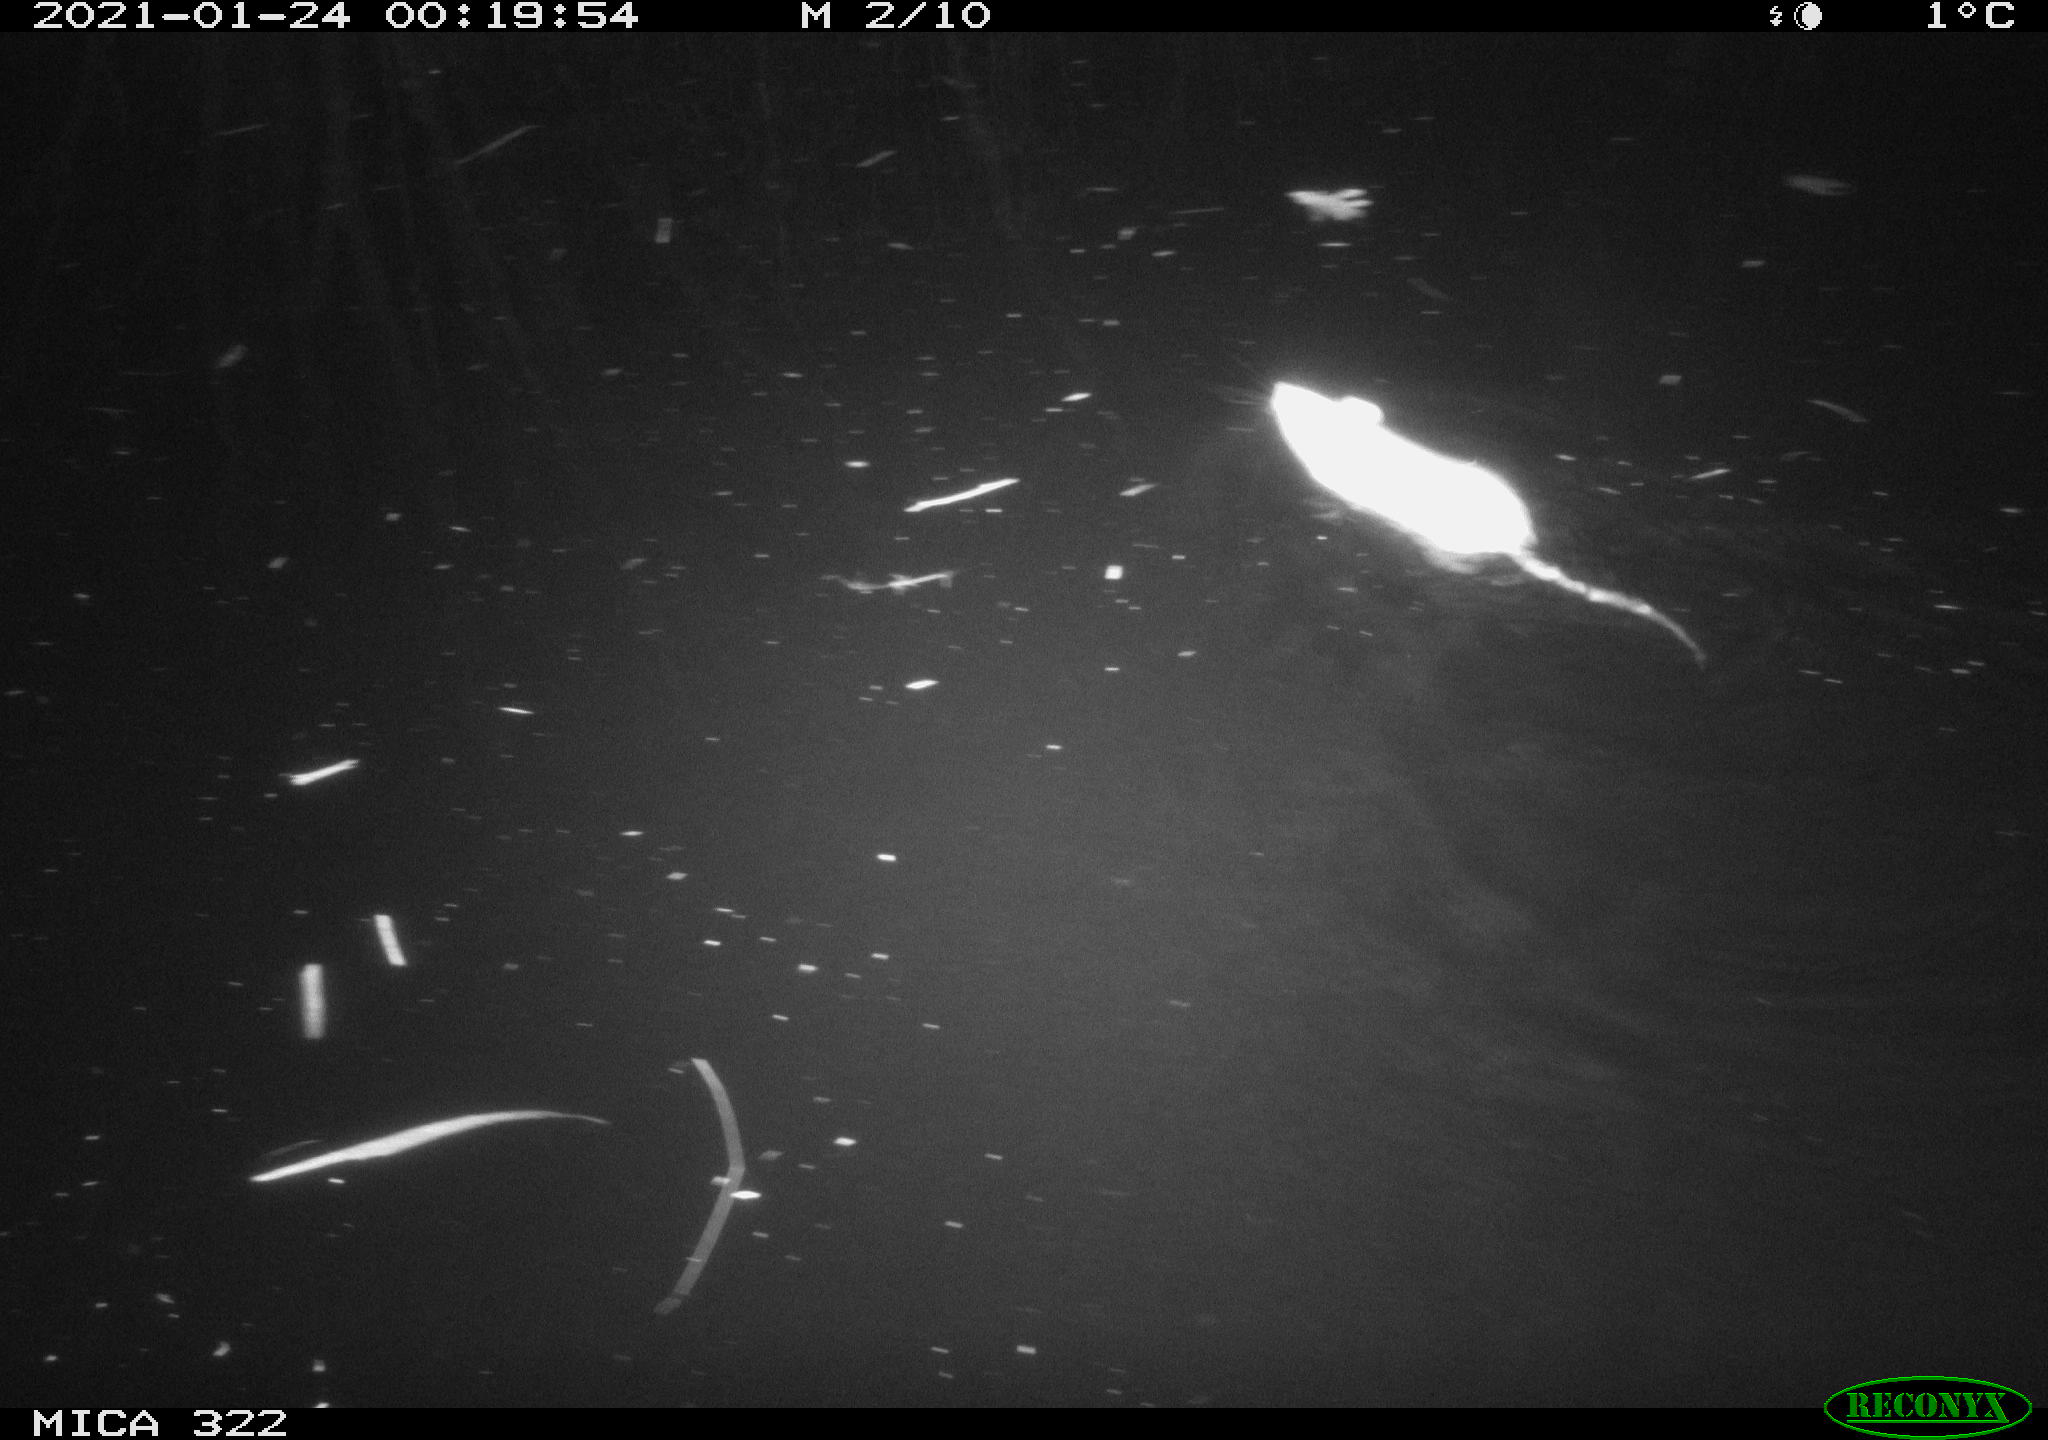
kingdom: Animalia
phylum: Chordata
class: Mammalia
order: Rodentia
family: Muridae
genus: Rattus
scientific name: Rattus norvegicus
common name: Brown rat
